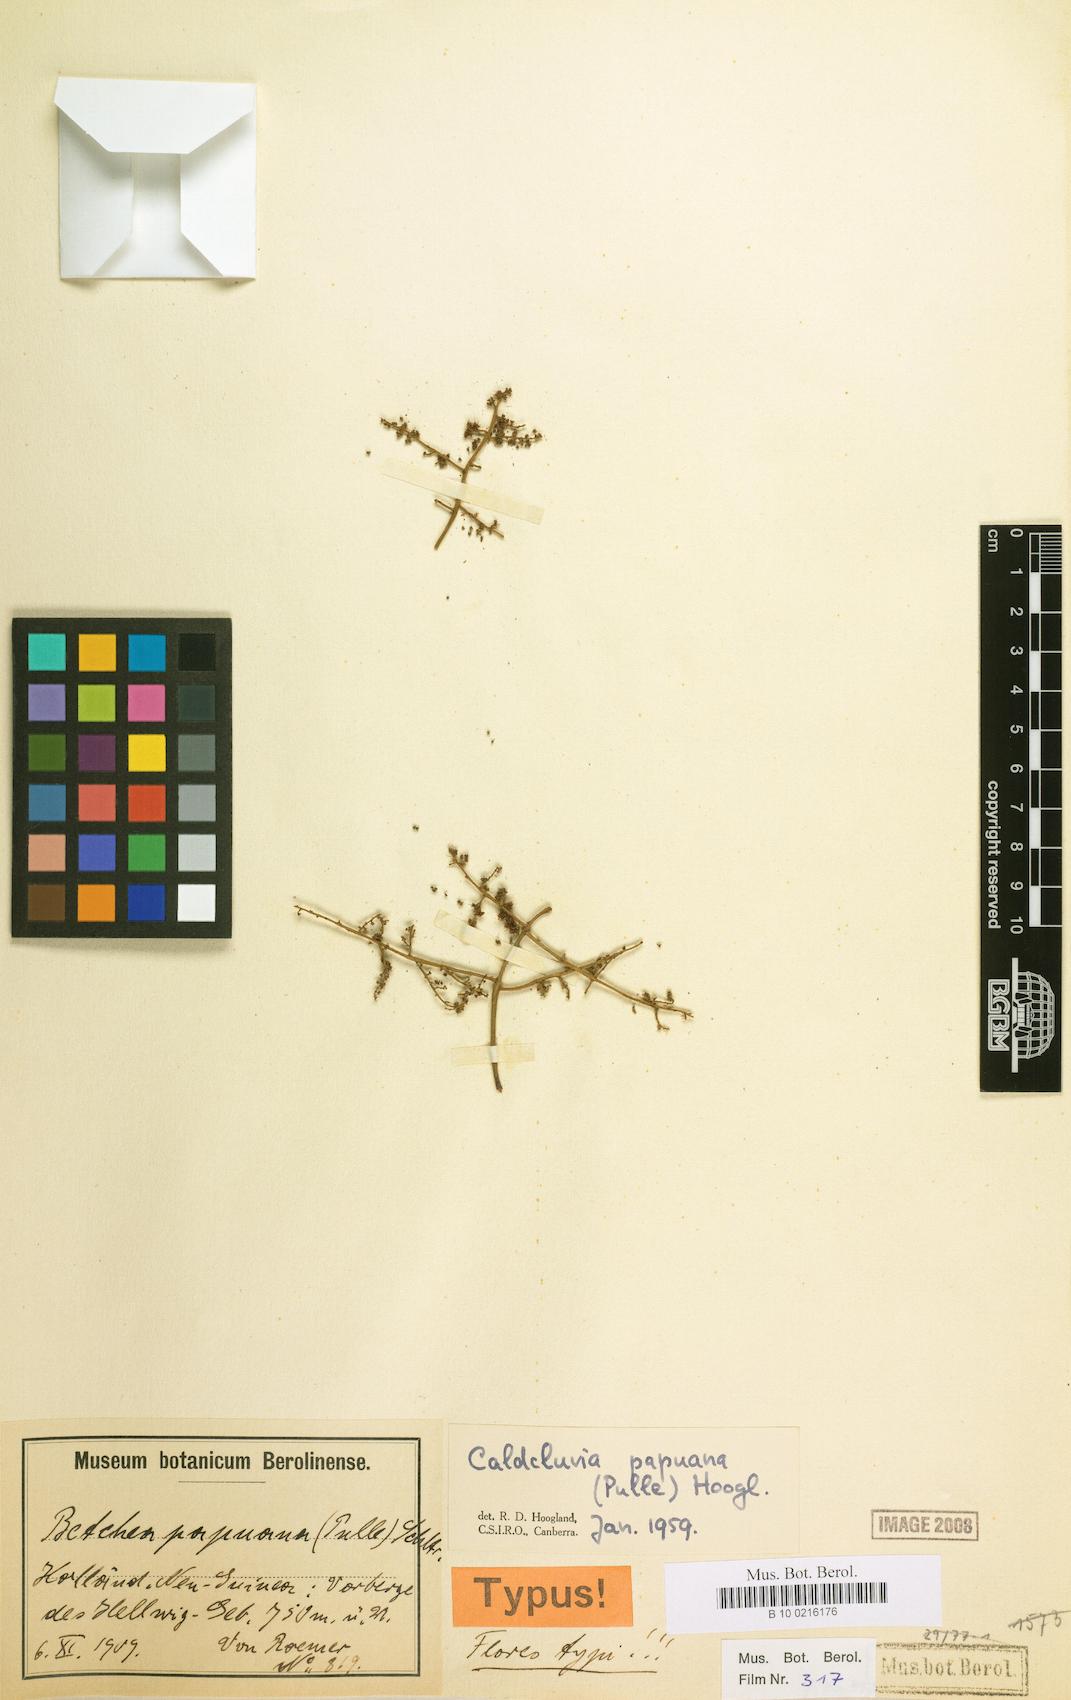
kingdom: Plantae
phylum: Tracheophyta
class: Magnoliopsida
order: Oxalidales
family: Cunoniaceae
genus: Ackama
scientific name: Ackama papuana
